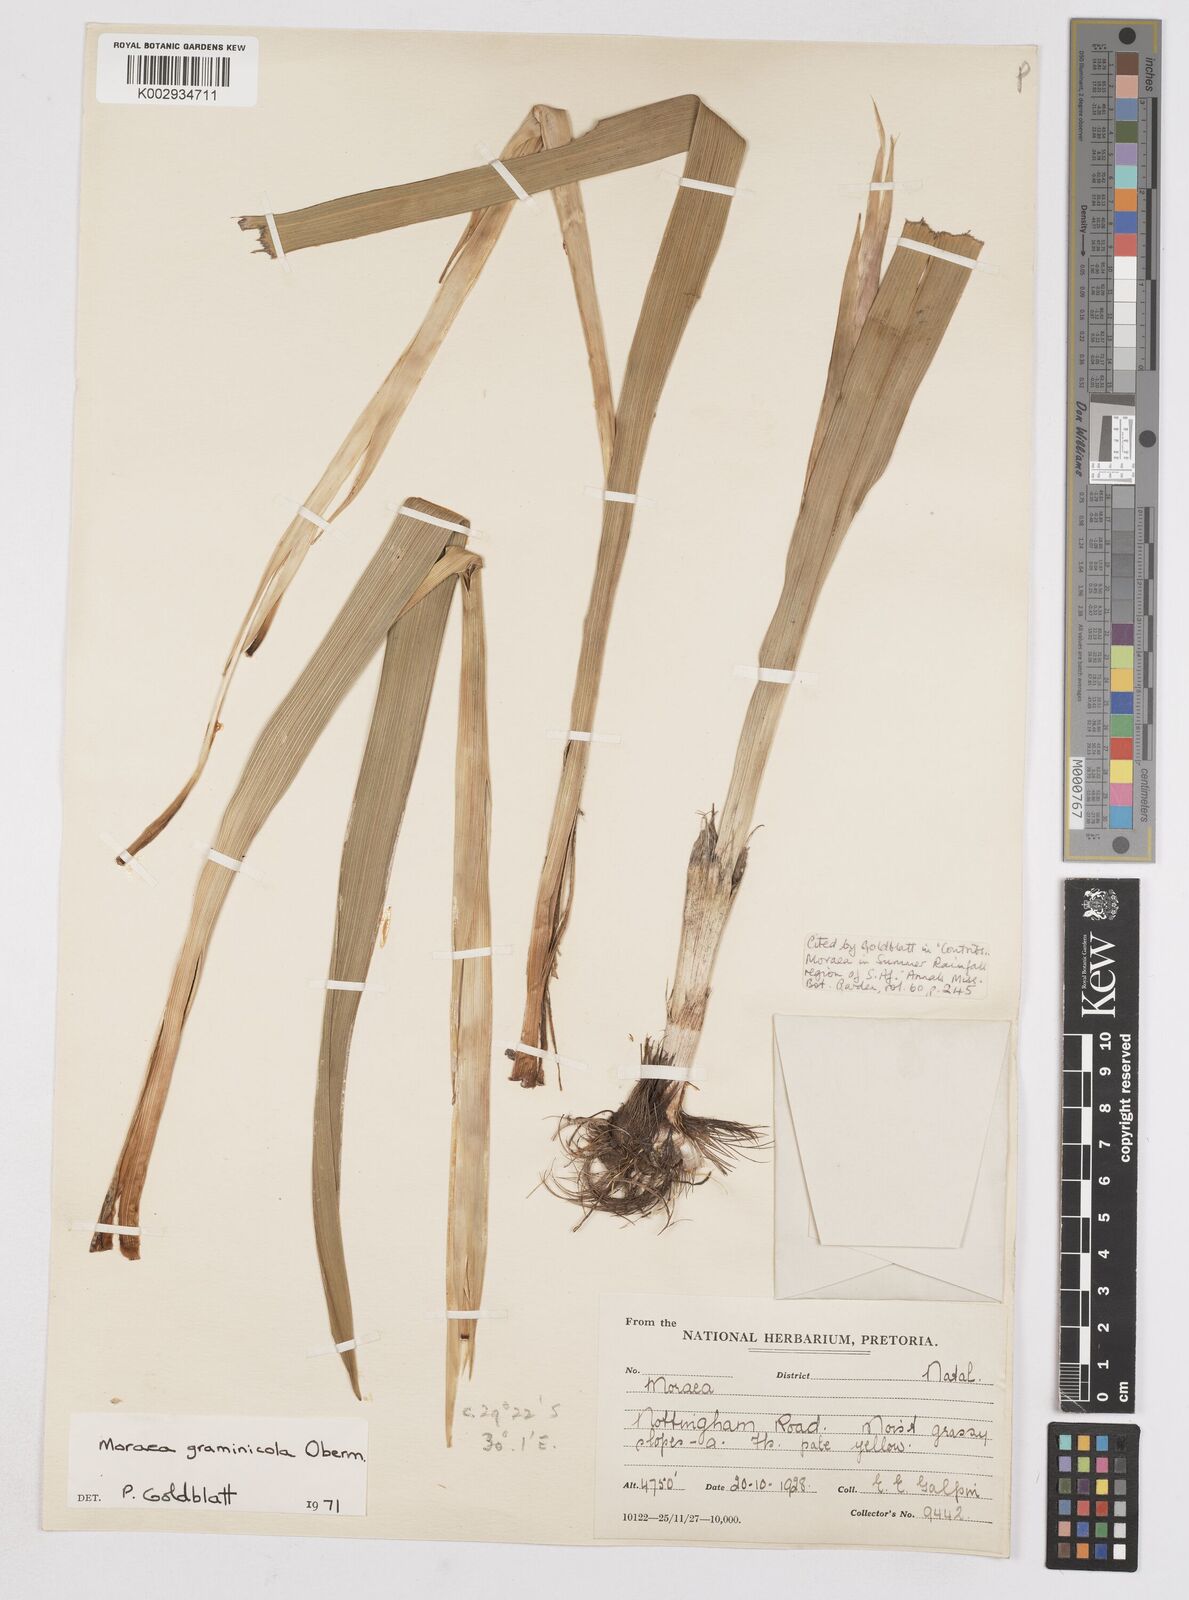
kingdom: Plantae
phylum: Tracheophyta
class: Liliopsida
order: Asparagales
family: Iridaceae
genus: Moraea
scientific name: Moraea graminicola
